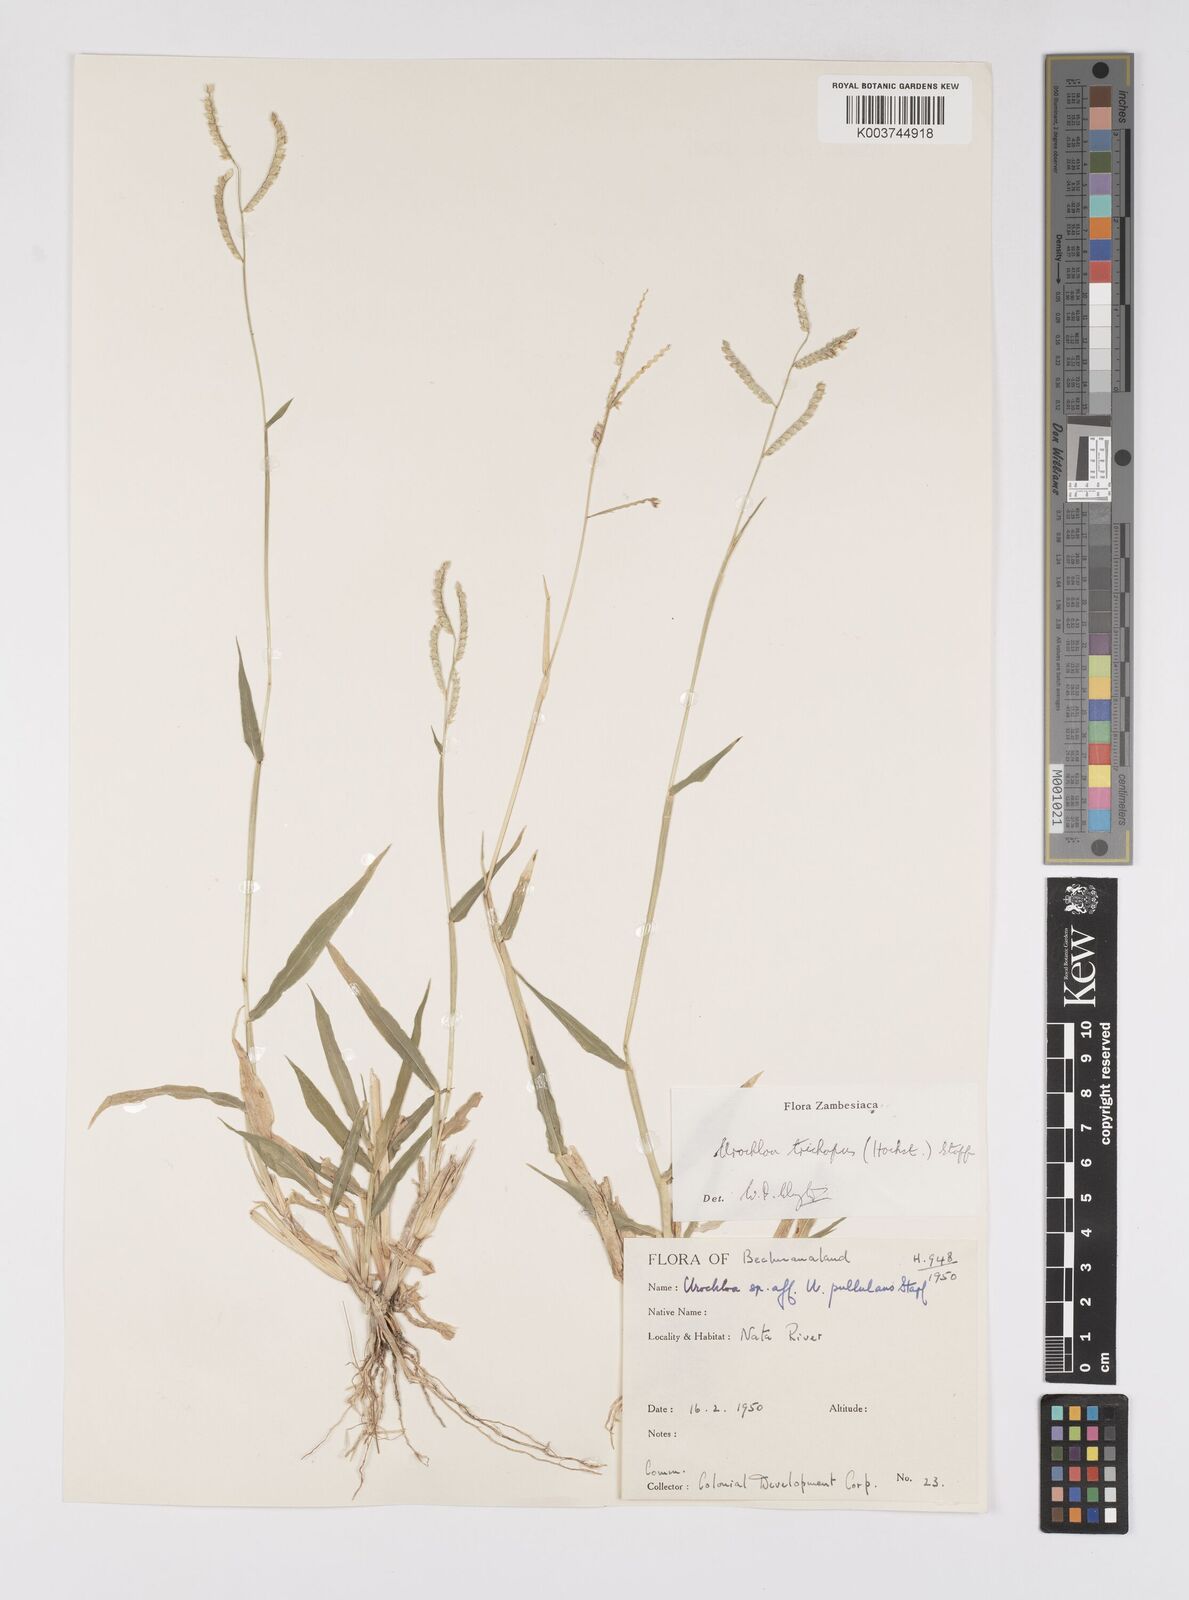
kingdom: Plantae
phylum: Tracheophyta
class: Liliopsida
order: Poales
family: Poaceae
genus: Urochloa
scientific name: Urochloa trichopus
